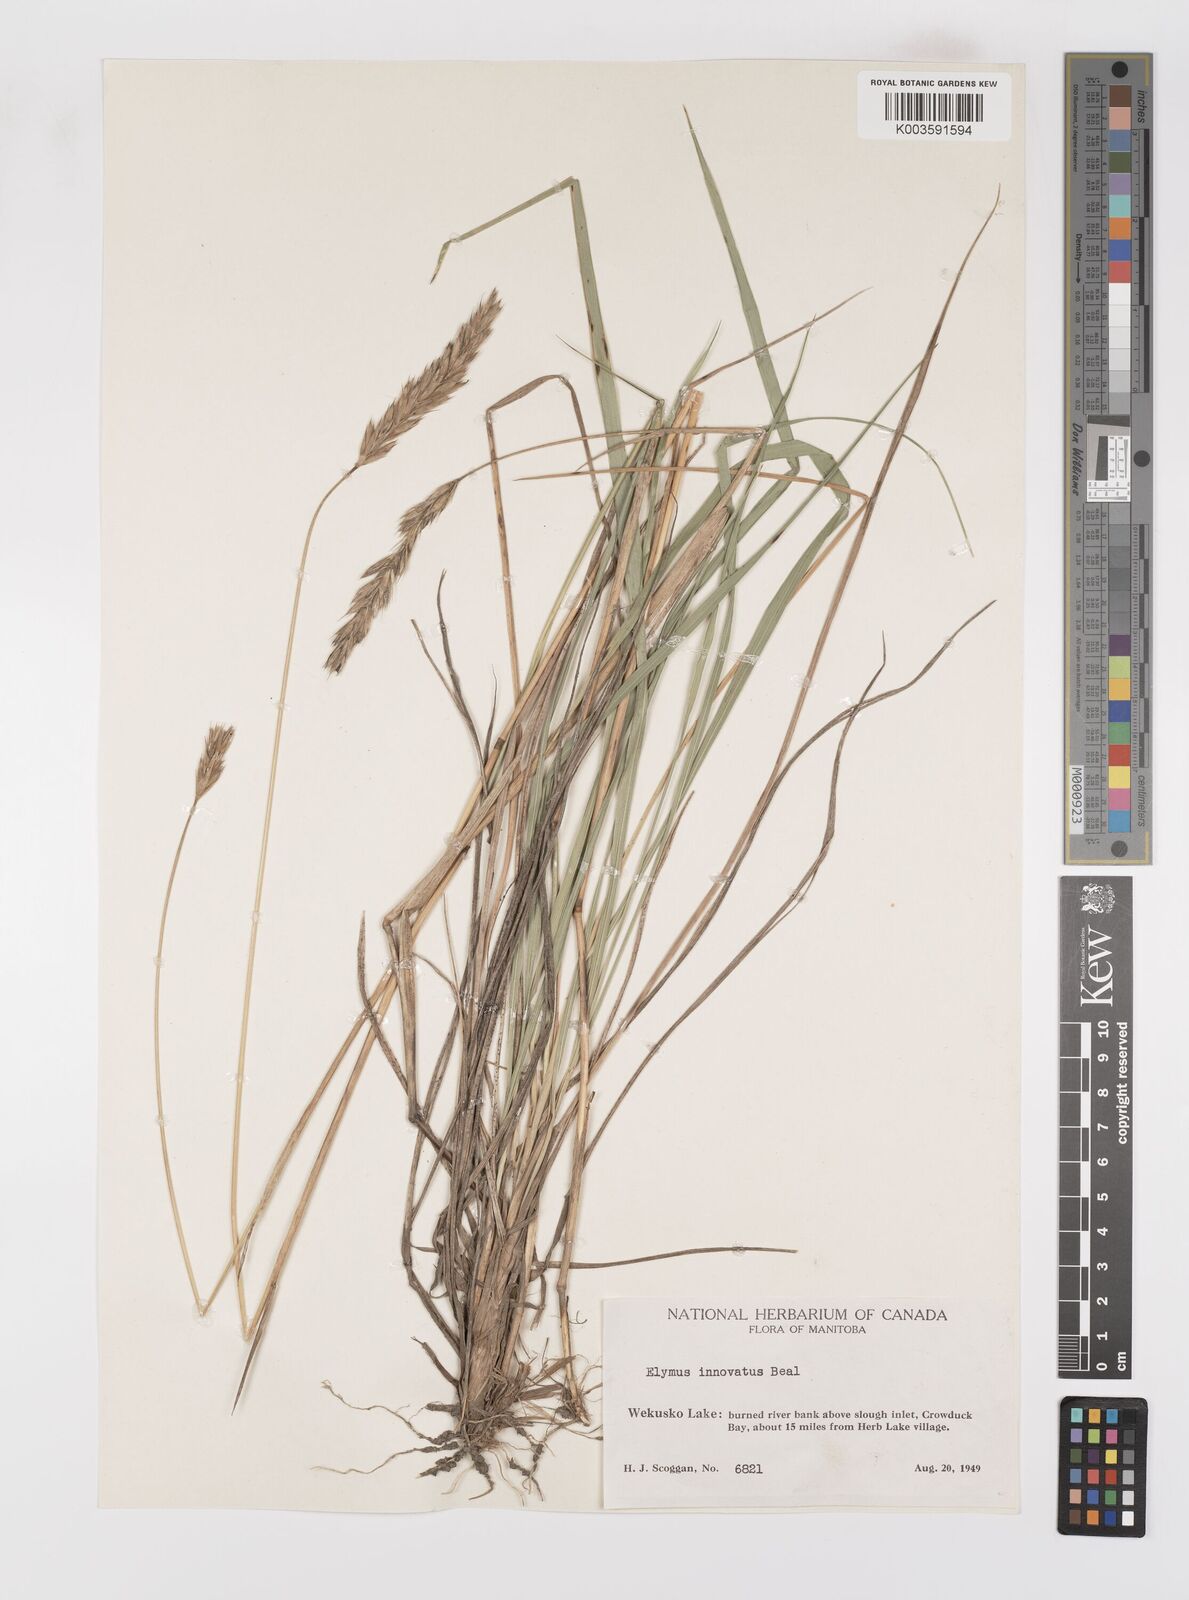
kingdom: Plantae
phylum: Tracheophyta
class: Liliopsida
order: Poales
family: Poaceae
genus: Leymus
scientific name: Leymus innovatus
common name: Boreal wild rye
